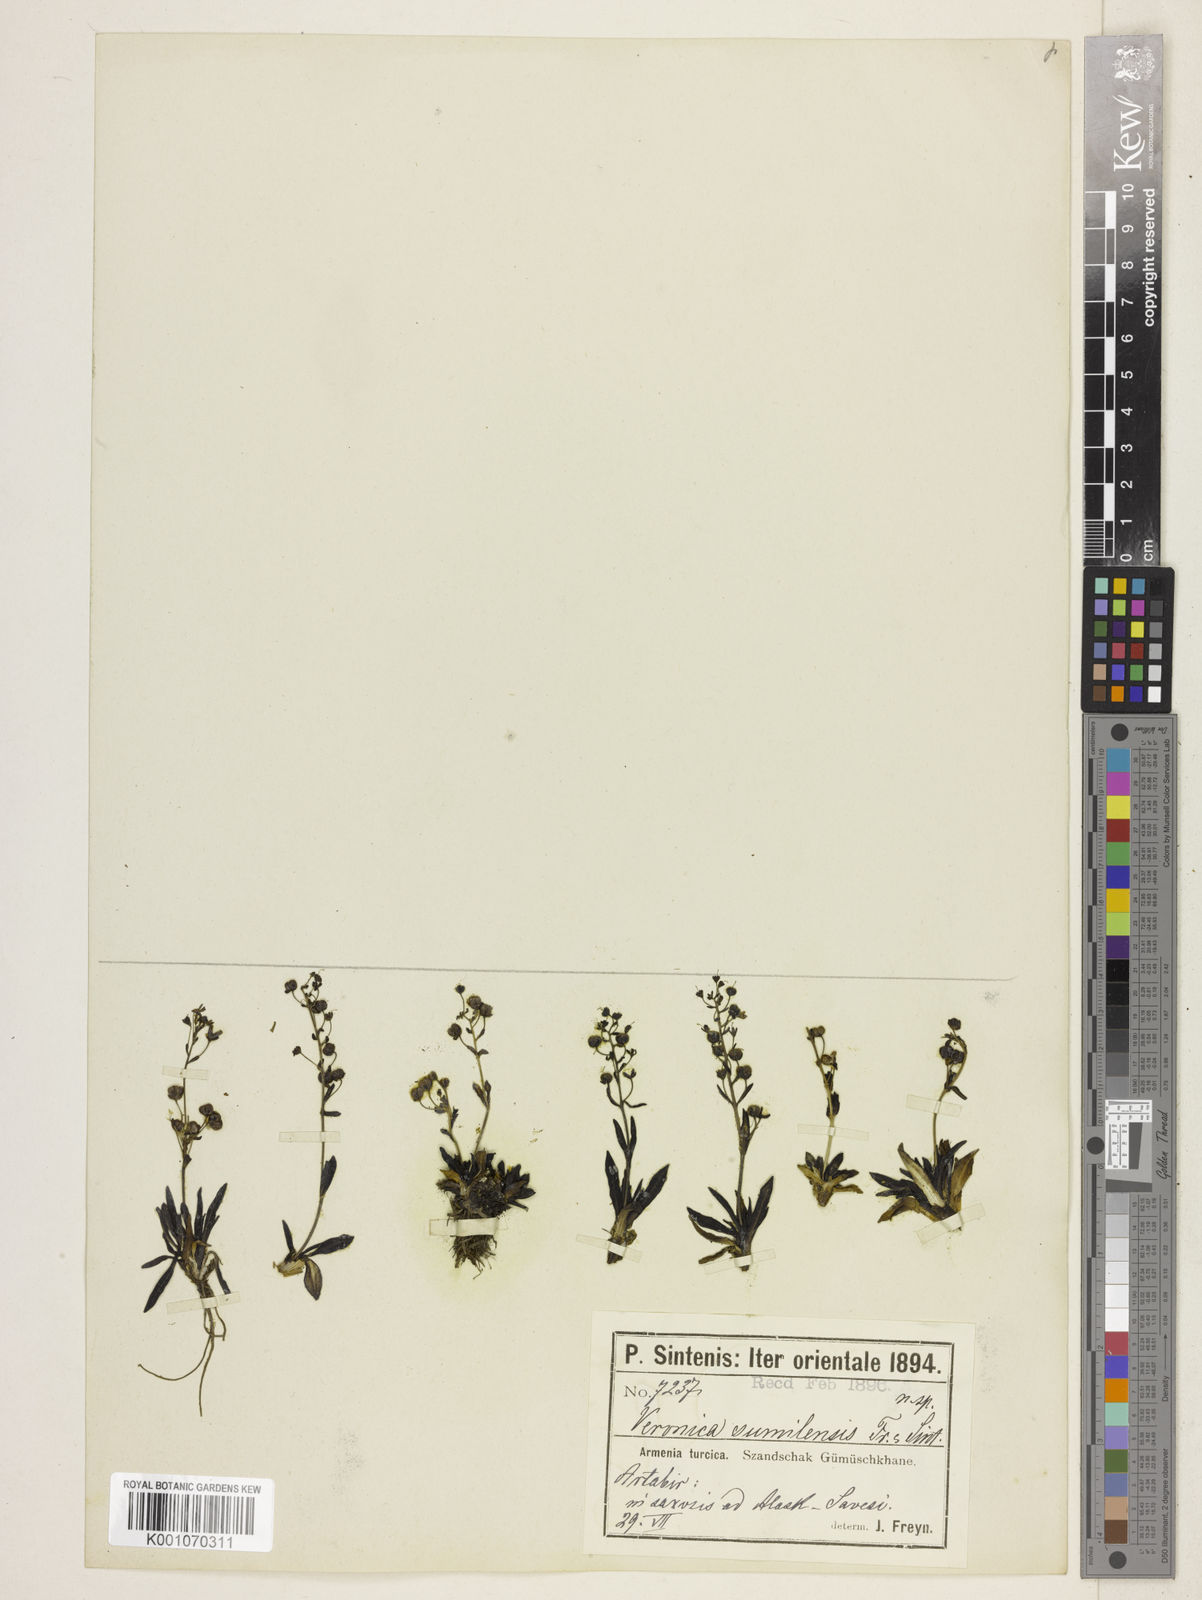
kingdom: Plantae
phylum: Tracheophyta
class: Magnoliopsida
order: Lamiales
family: Plantaginaceae
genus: Veronica
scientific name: Veronica gentianoides
